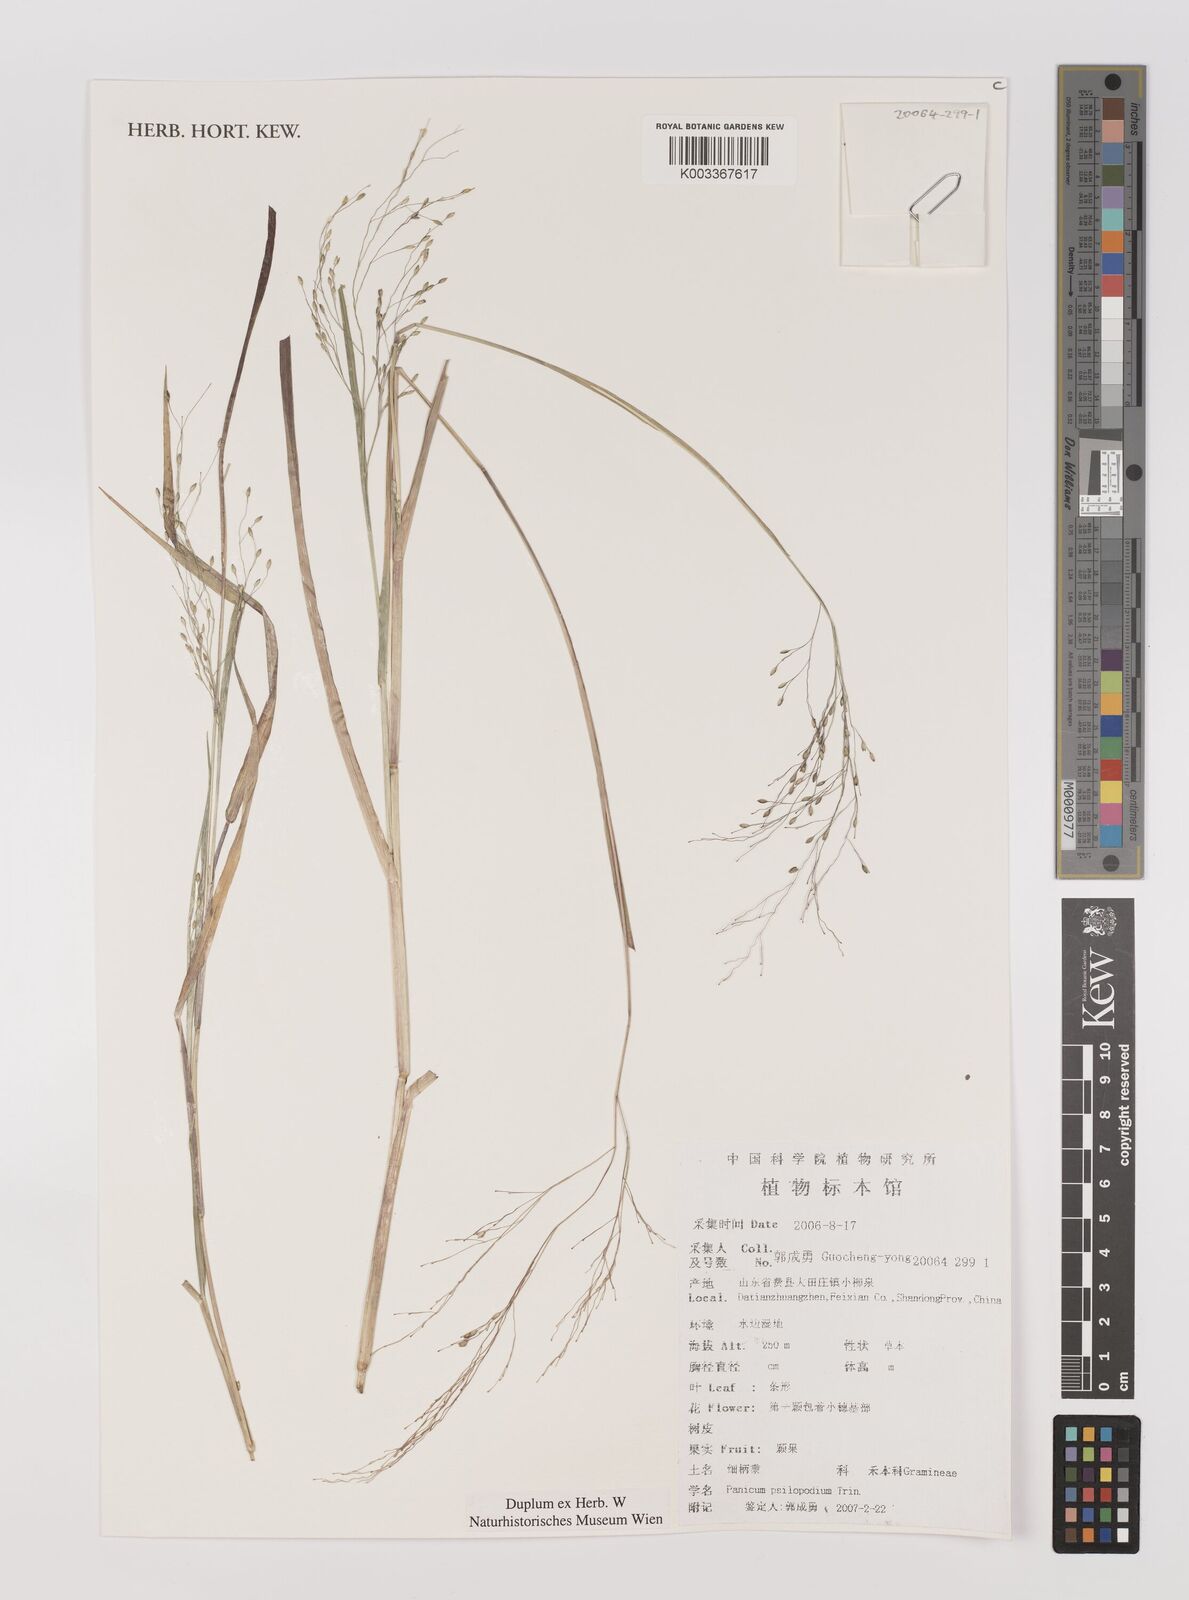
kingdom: Plantae
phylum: Tracheophyta
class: Liliopsida
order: Poales
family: Poaceae
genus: Panicum
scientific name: Panicum sumatrense
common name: Little millet
